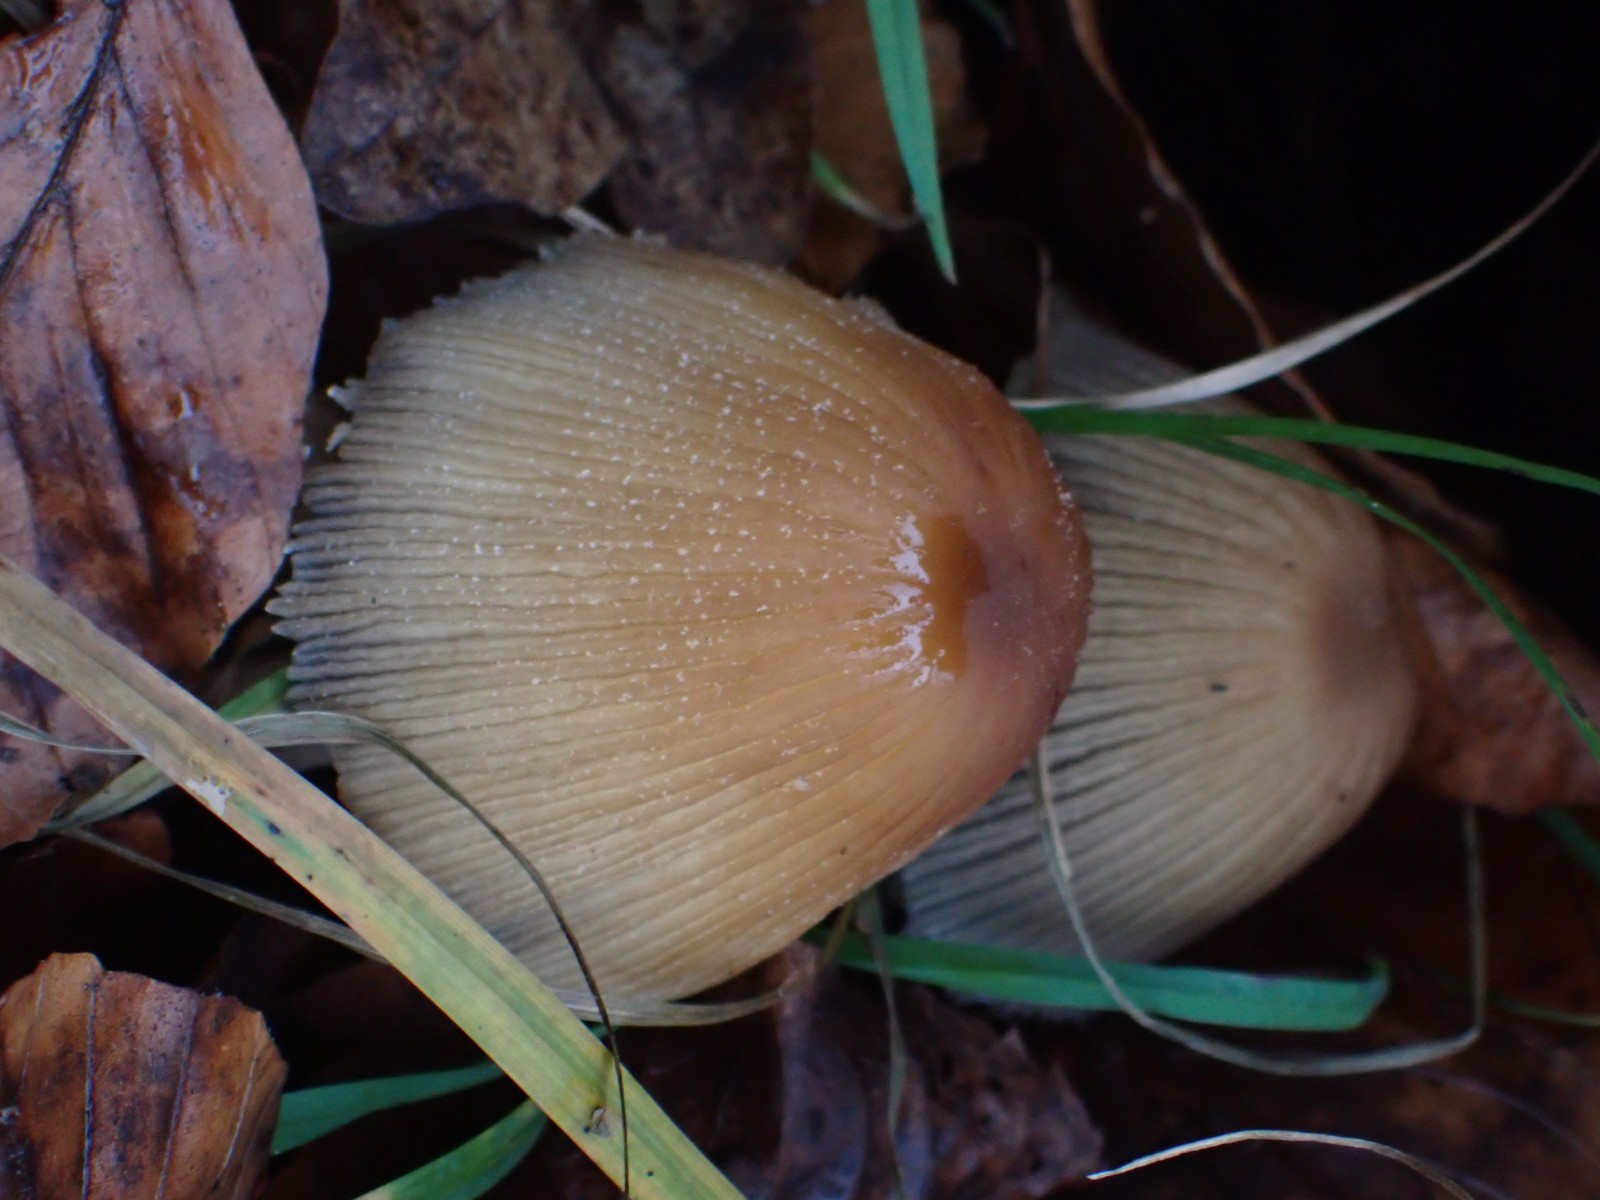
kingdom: Fungi
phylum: Basidiomycota
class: Agaricomycetes
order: Agaricales
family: Psathyrellaceae
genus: Coprinellus
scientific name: Coprinellus micaceus
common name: glimmer-blækhat
